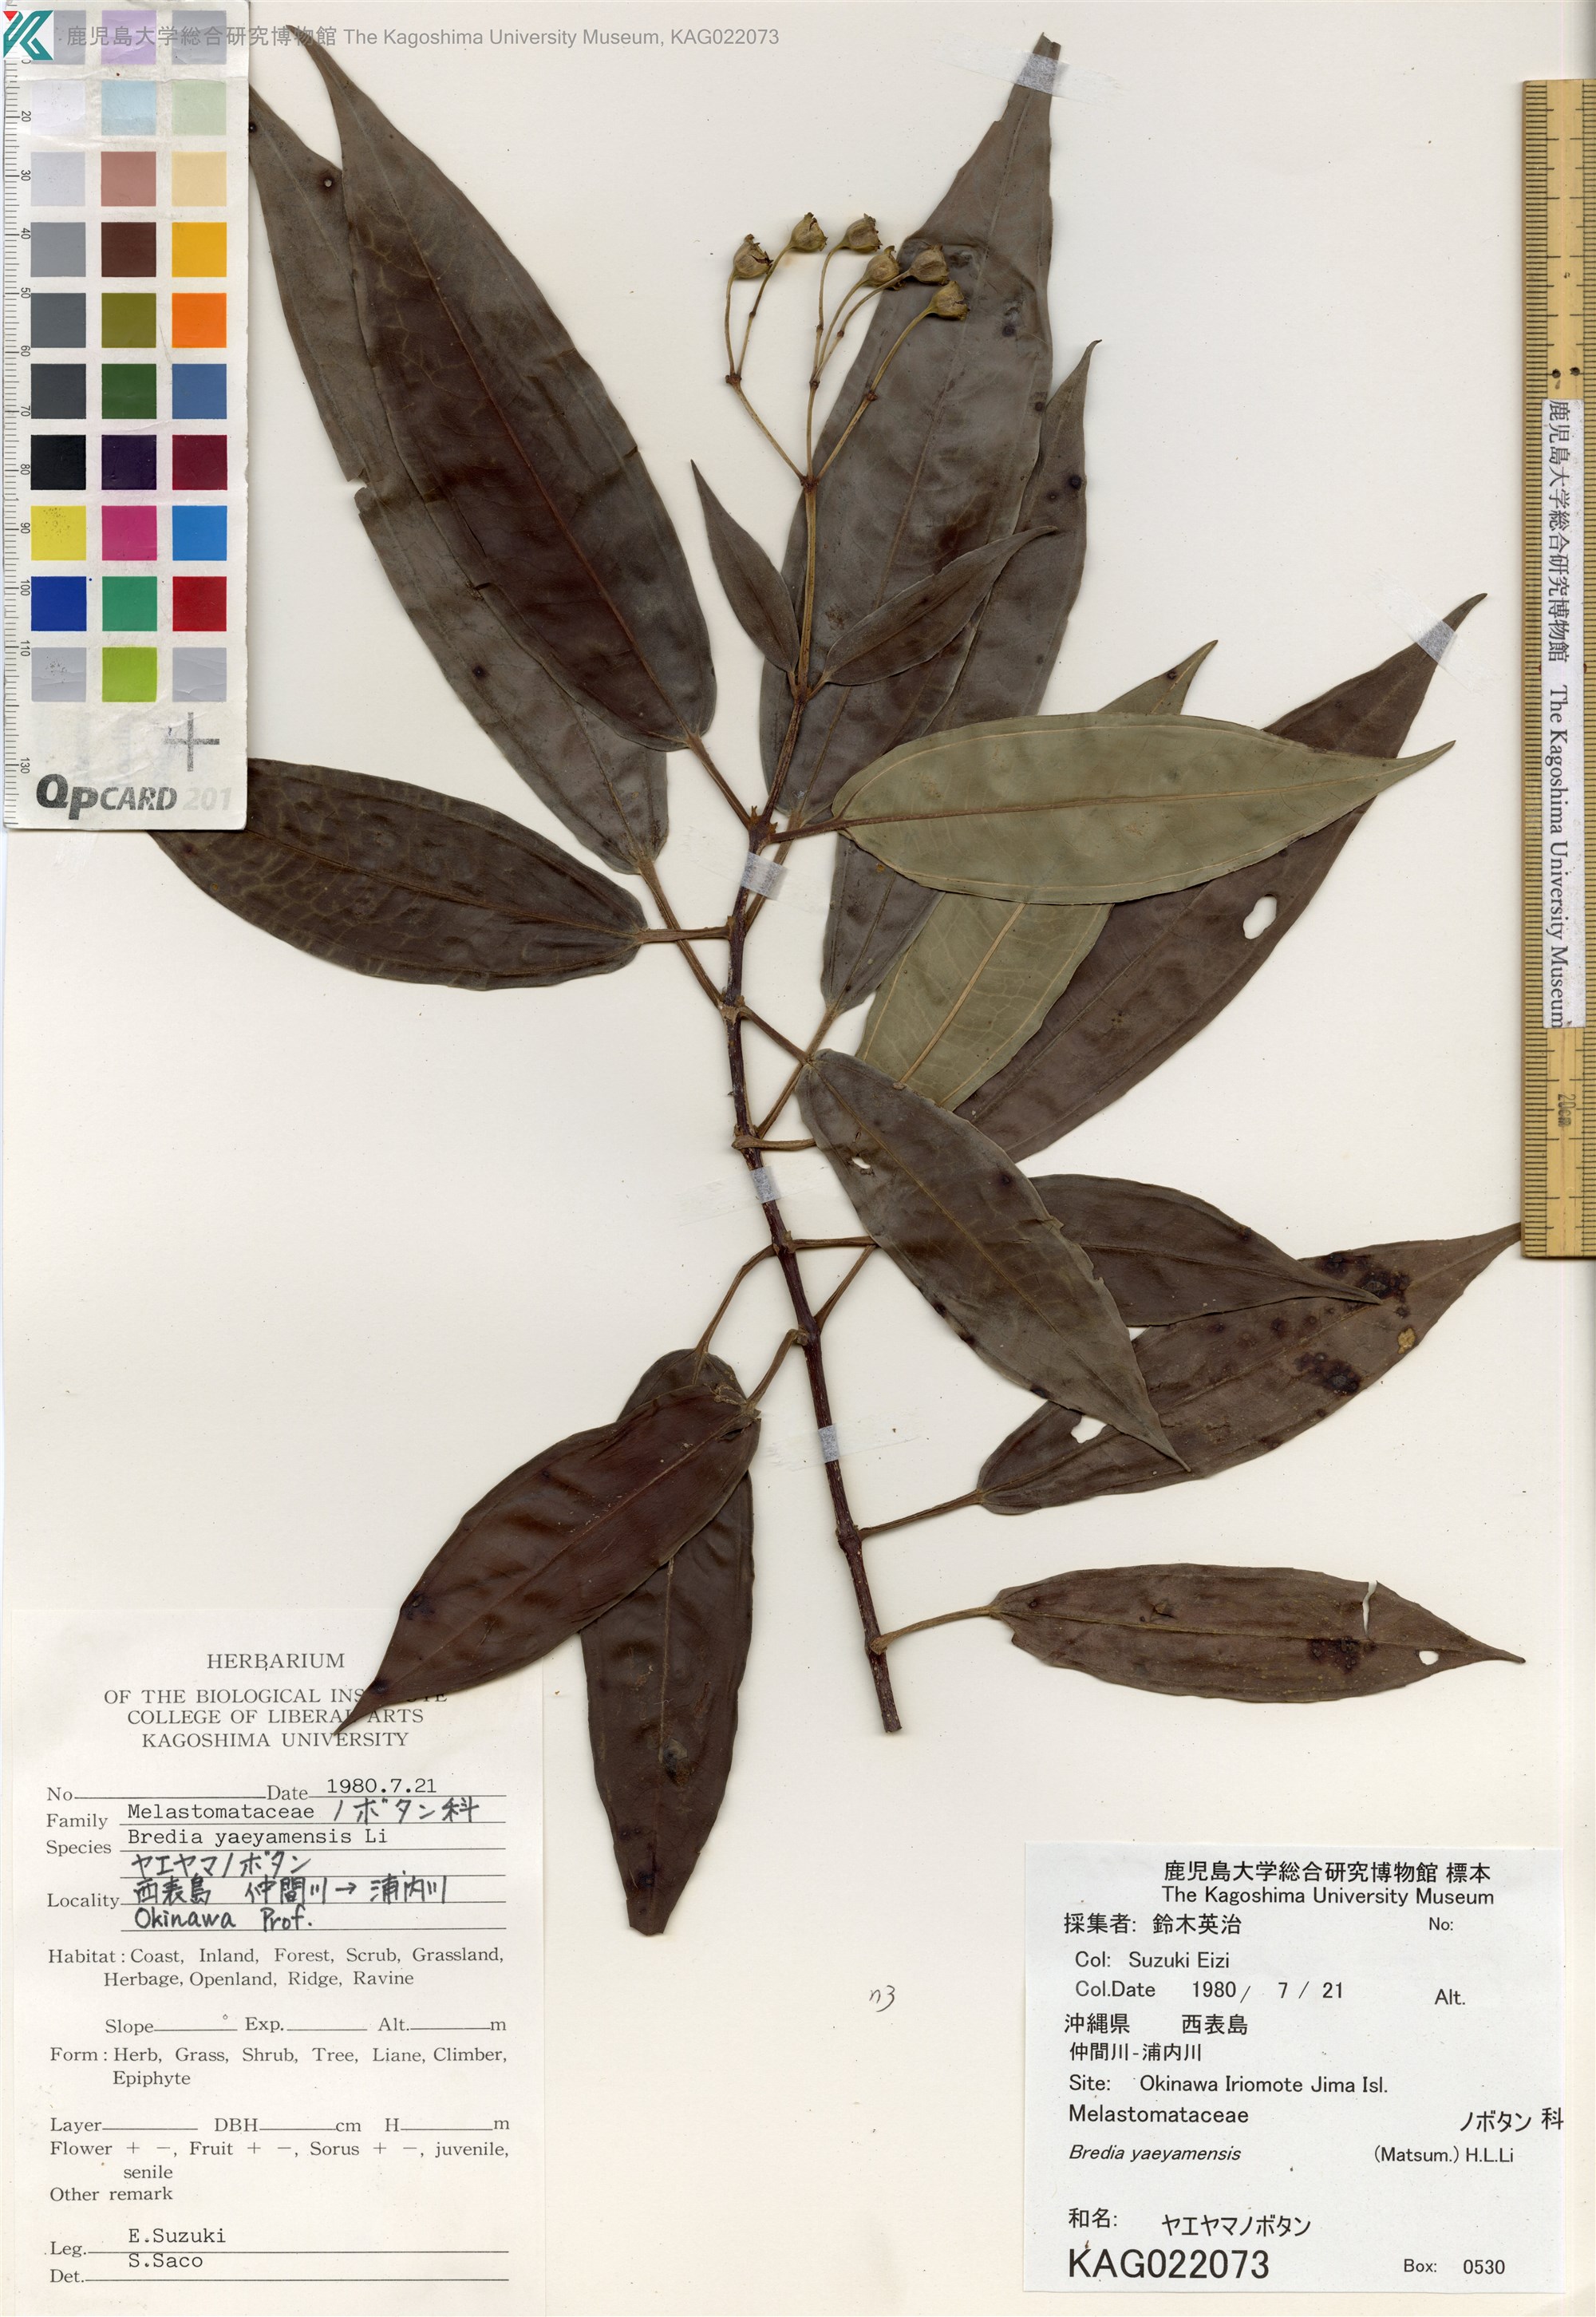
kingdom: Plantae
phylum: Tracheophyta
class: Magnoliopsida
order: Myrtales
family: Melastomataceae
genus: Tashiroea
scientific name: Tashiroea yaeyamensis
